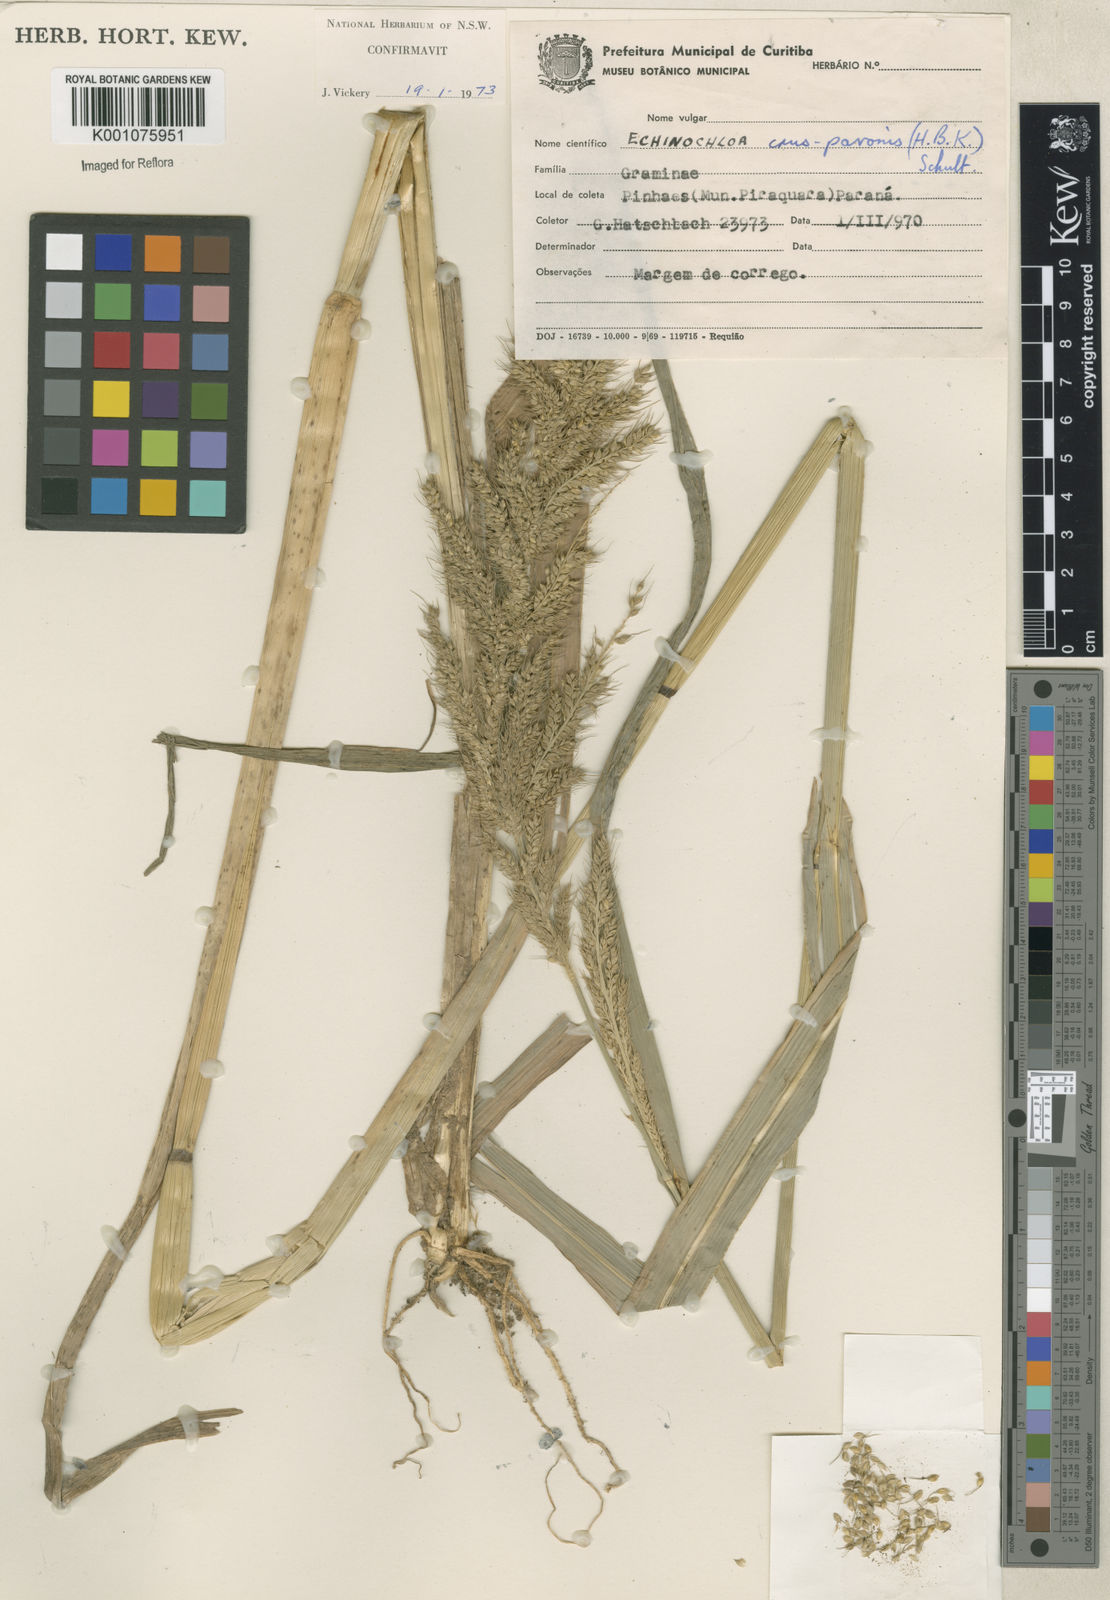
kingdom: Plantae
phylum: Tracheophyta
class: Liliopsida
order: Poales
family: Poaceae
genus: Echinochloa
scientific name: Echinochloa crus-pavonis
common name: Gulf cockspur grass
